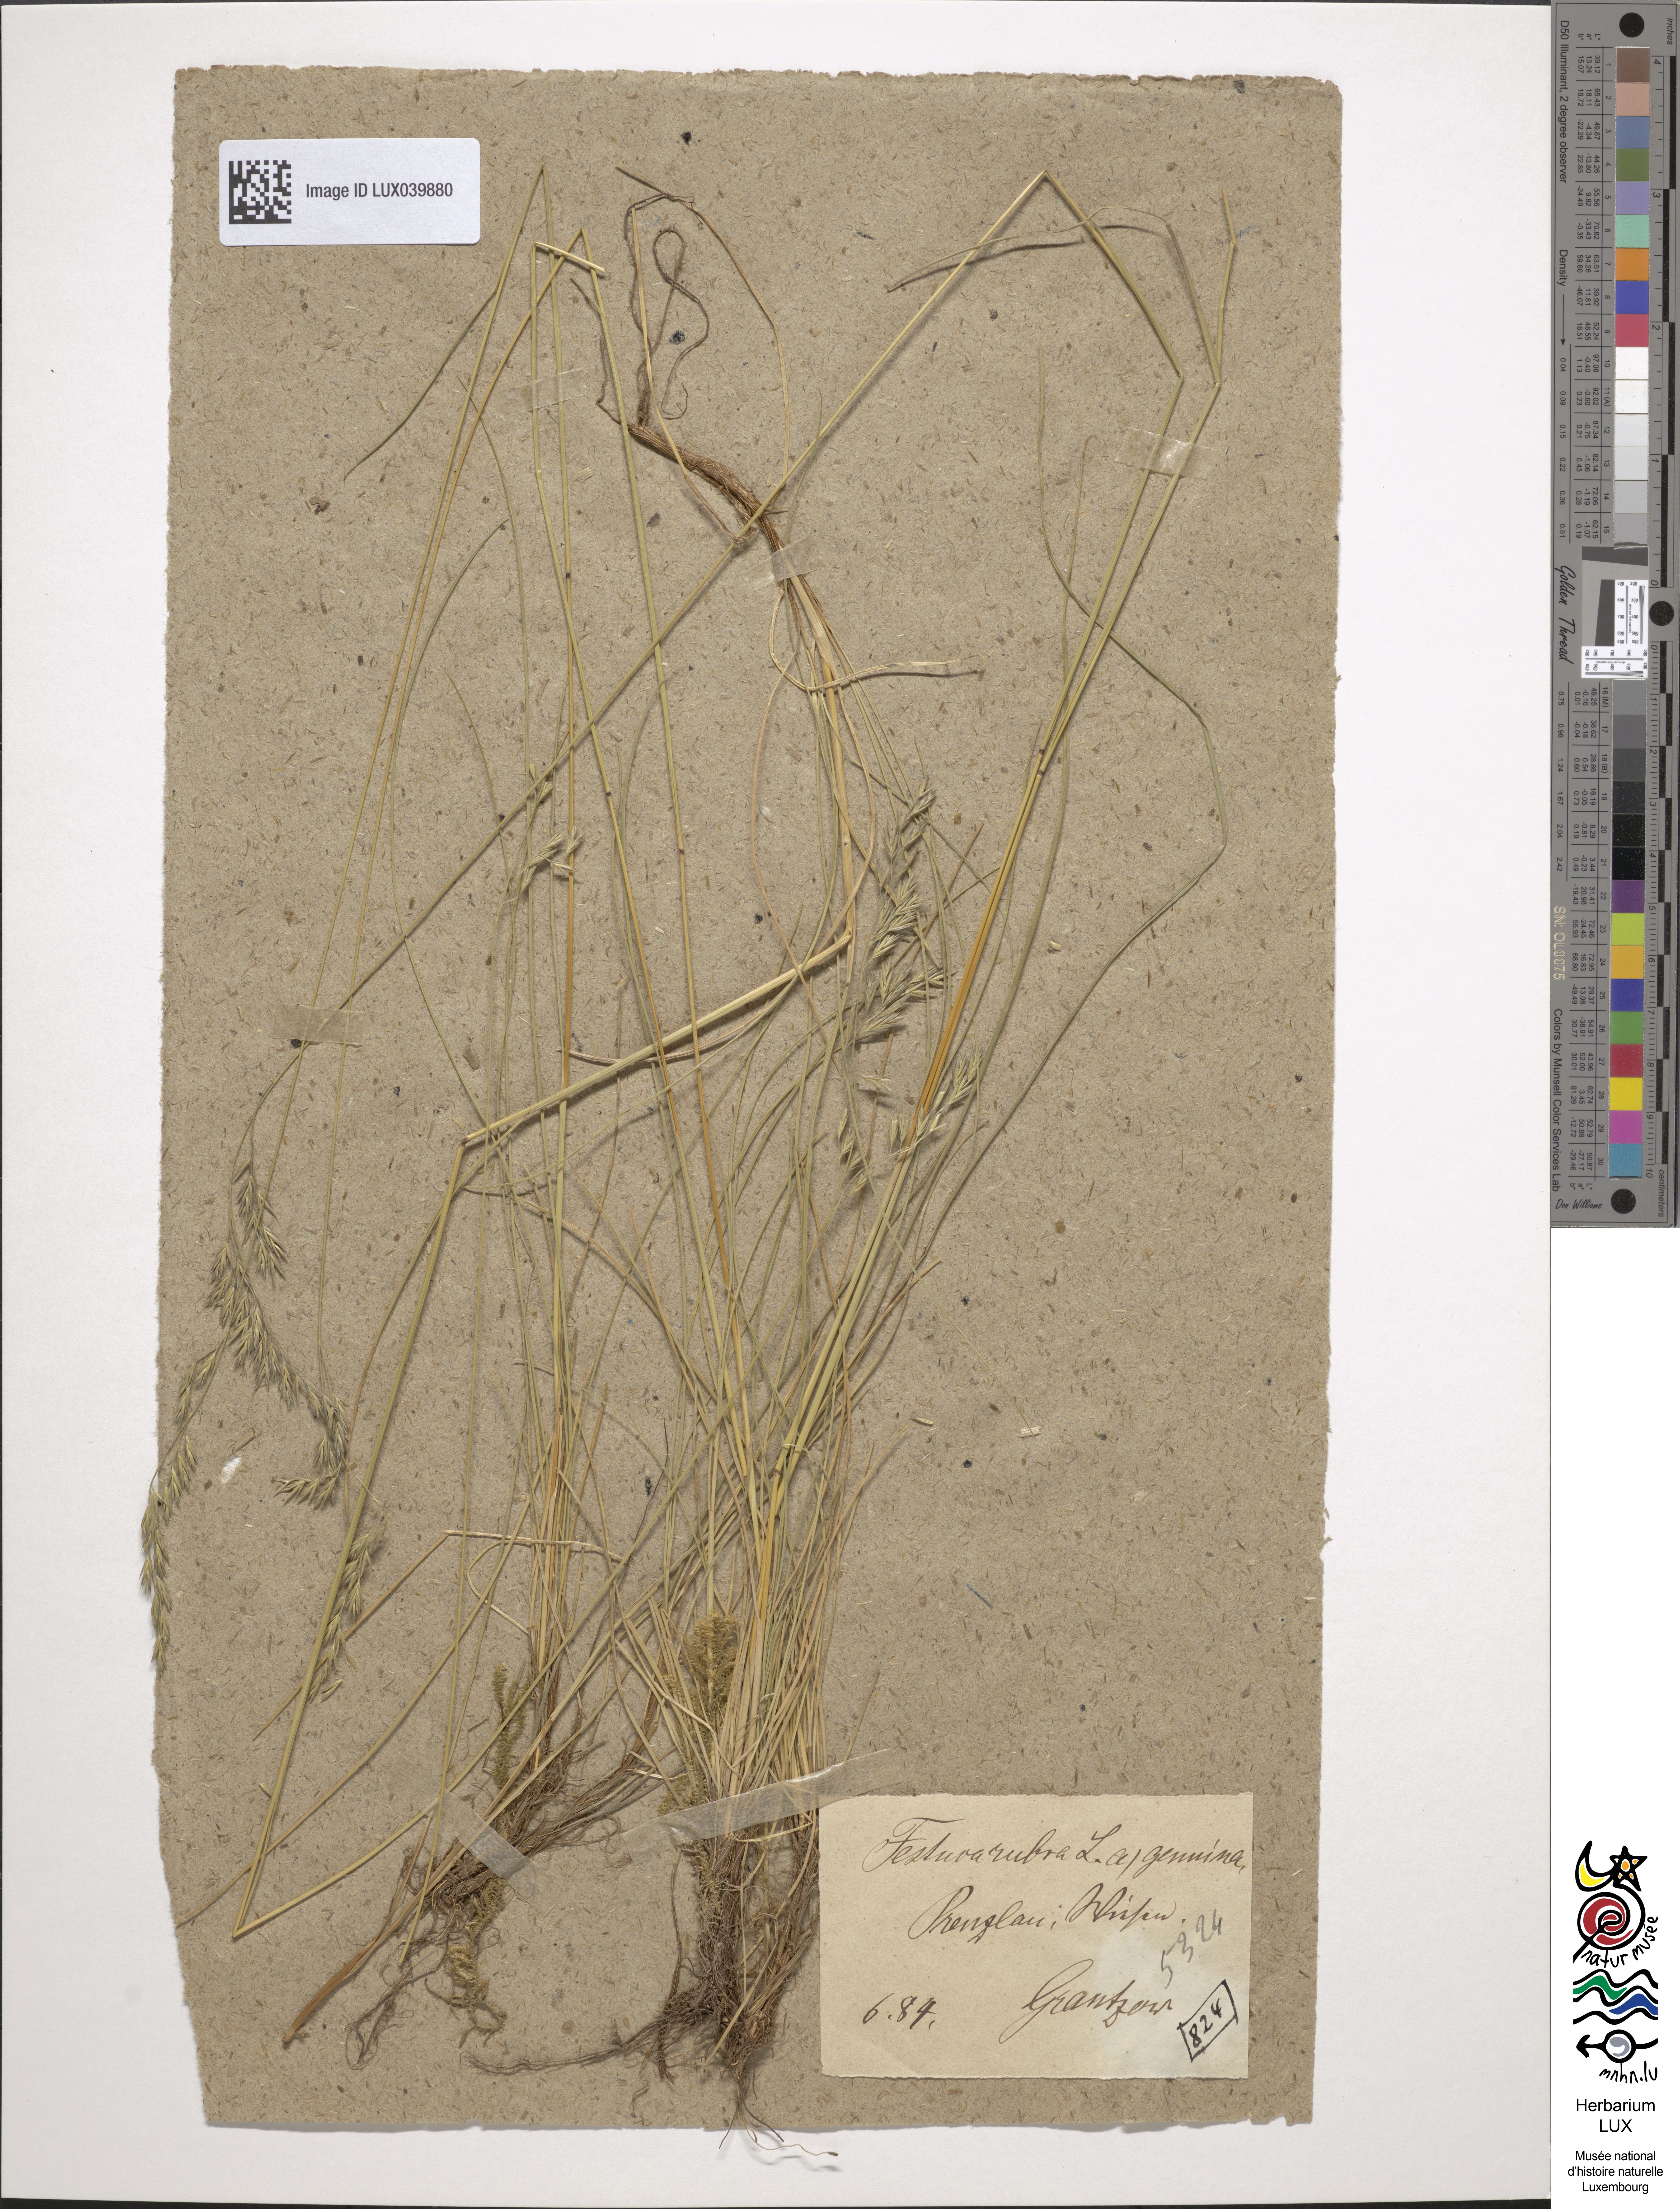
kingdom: Plantae
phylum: Tracheophyta
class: Liliopsida
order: Poales
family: Poaceae
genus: Festuca
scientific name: Festuca rubra
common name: Red fescue
